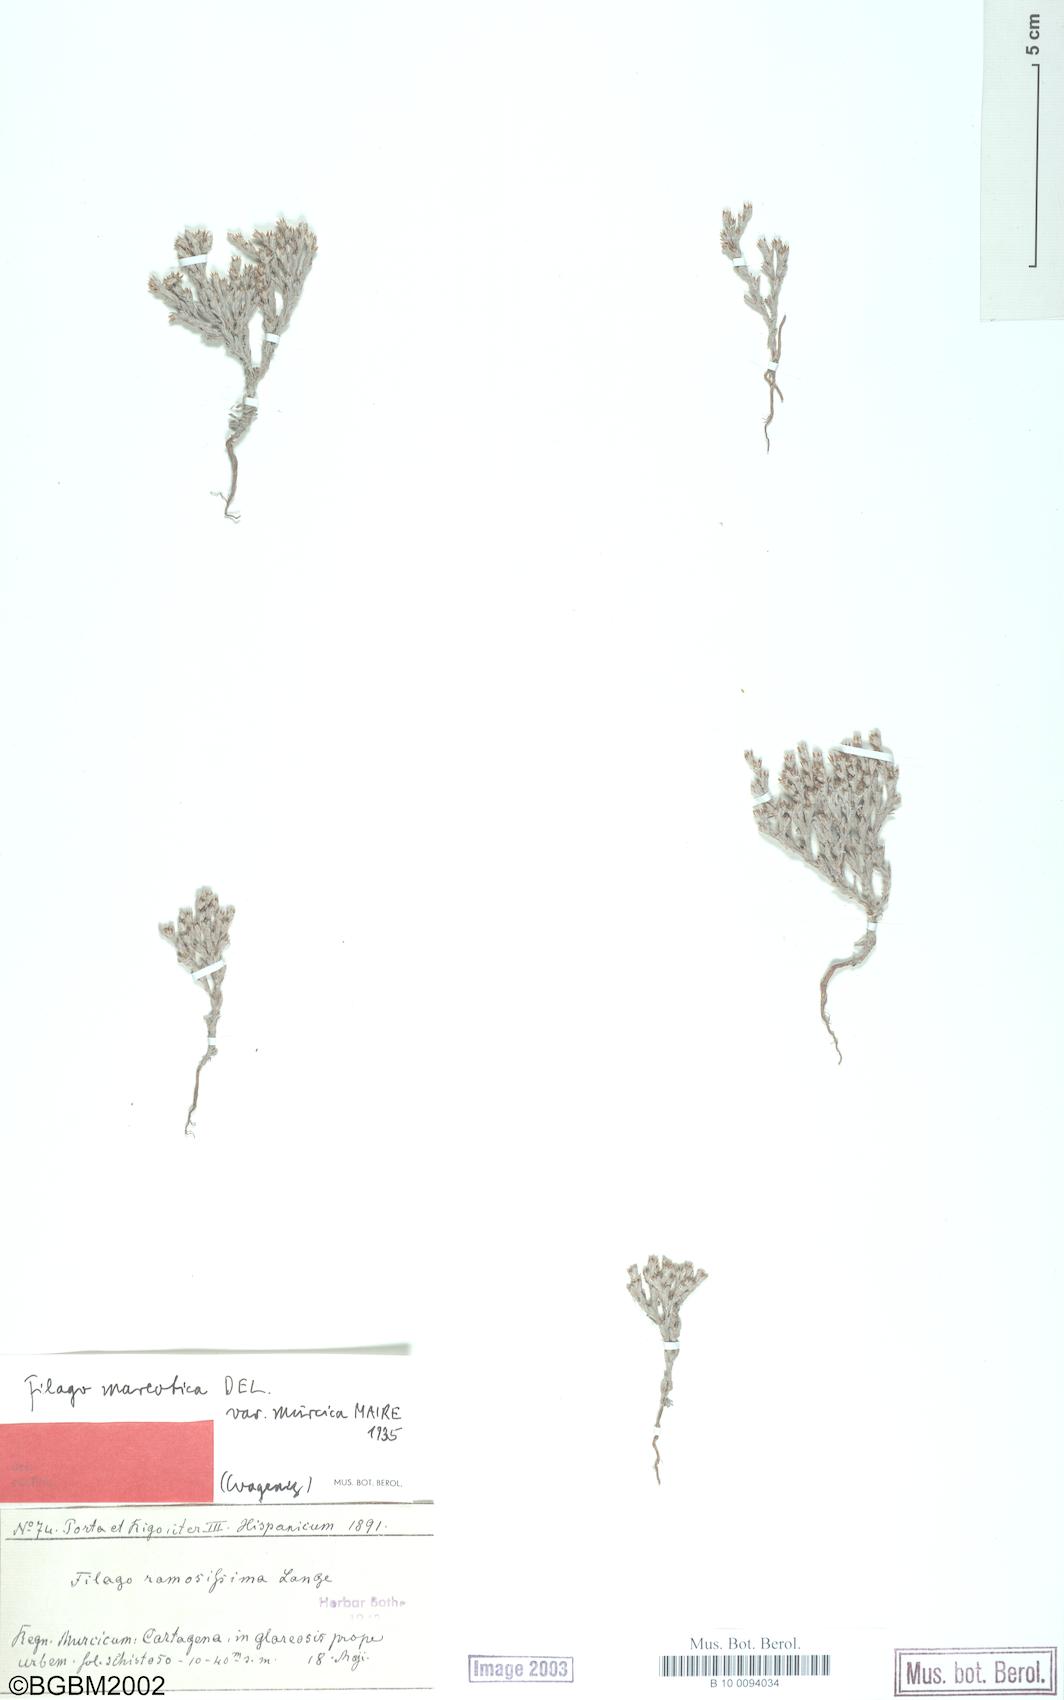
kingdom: Plantae
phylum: Tracheophyta
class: Magnoliopsida
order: Asterales
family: Asteraceae
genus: Filago
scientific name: Filago mareotica
